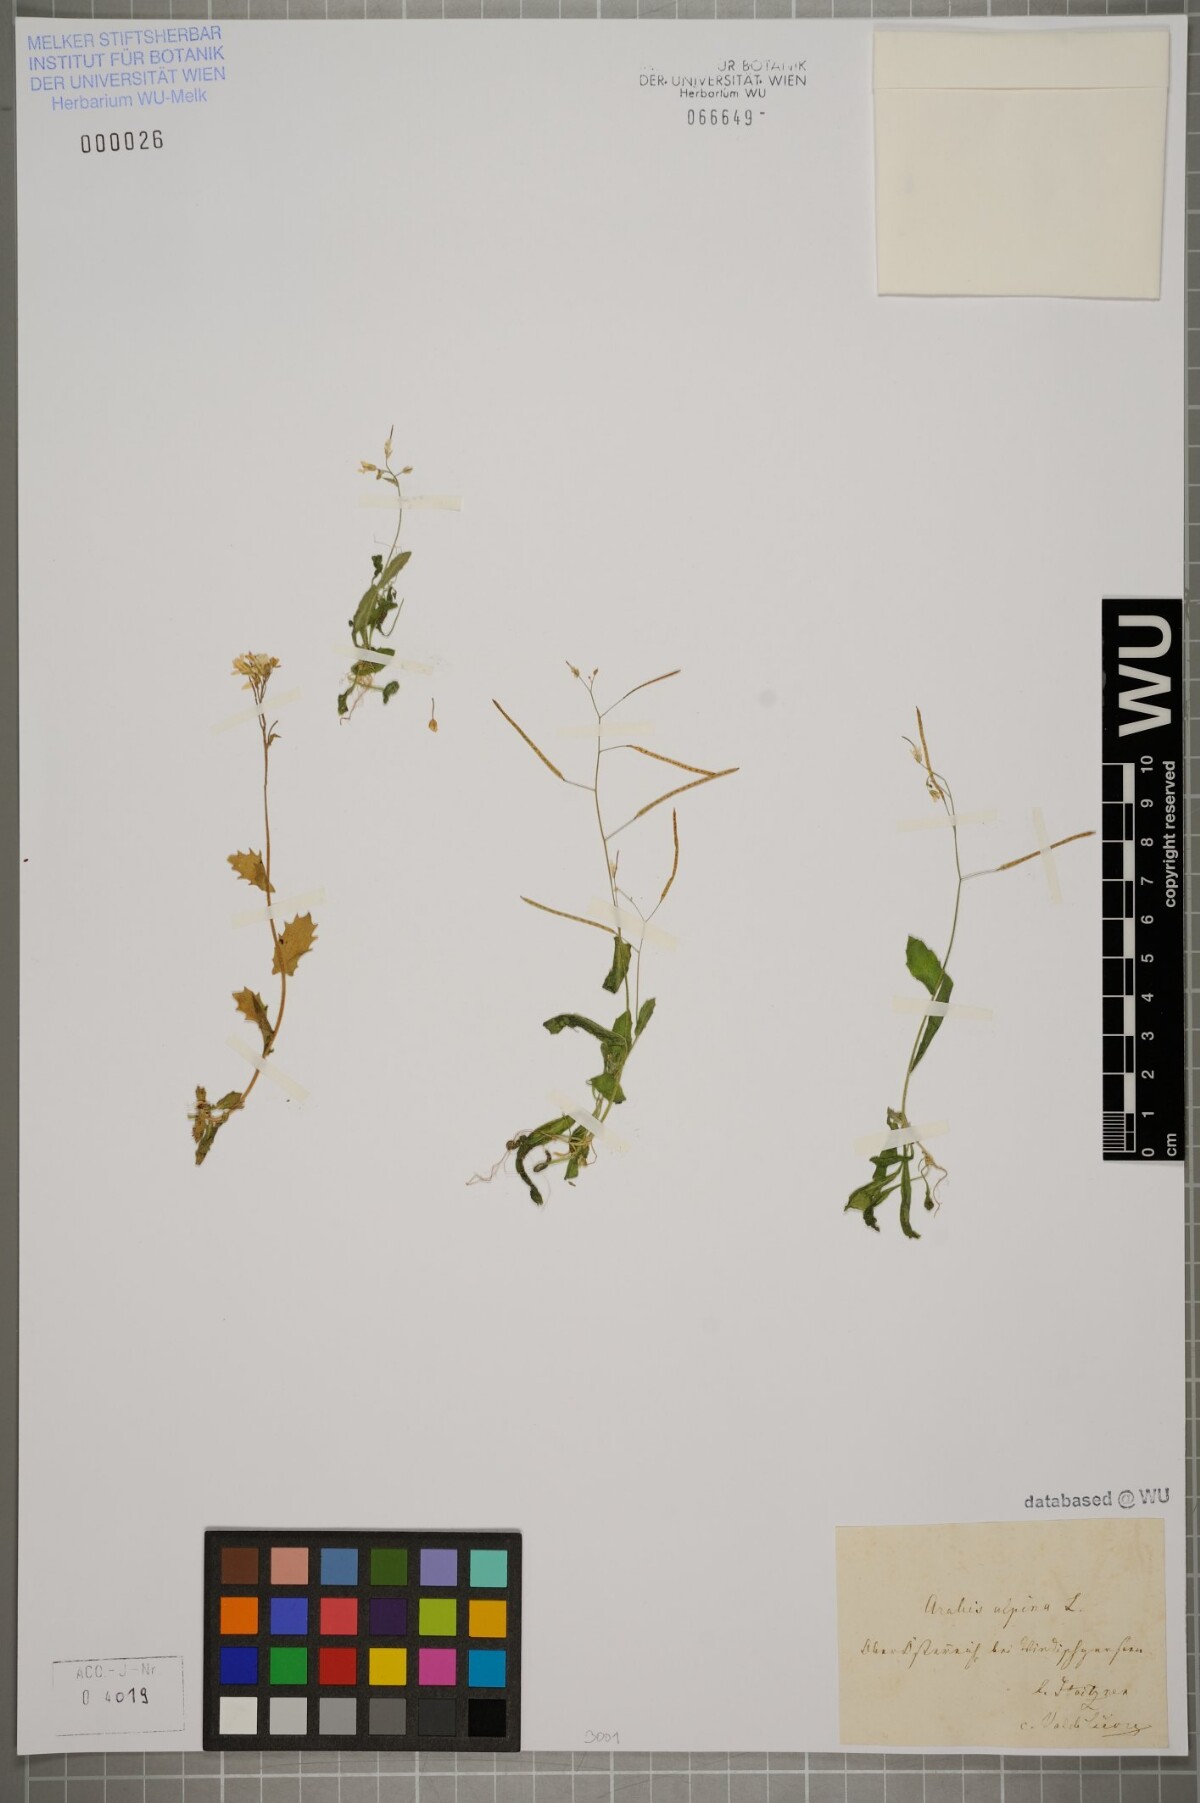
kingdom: Plantae
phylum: Tracheophyta
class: Magnoliopsida
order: Brassicales
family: Brassicaceae
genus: Arabis
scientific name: Arabis alpina
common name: Alpine rock-cress
